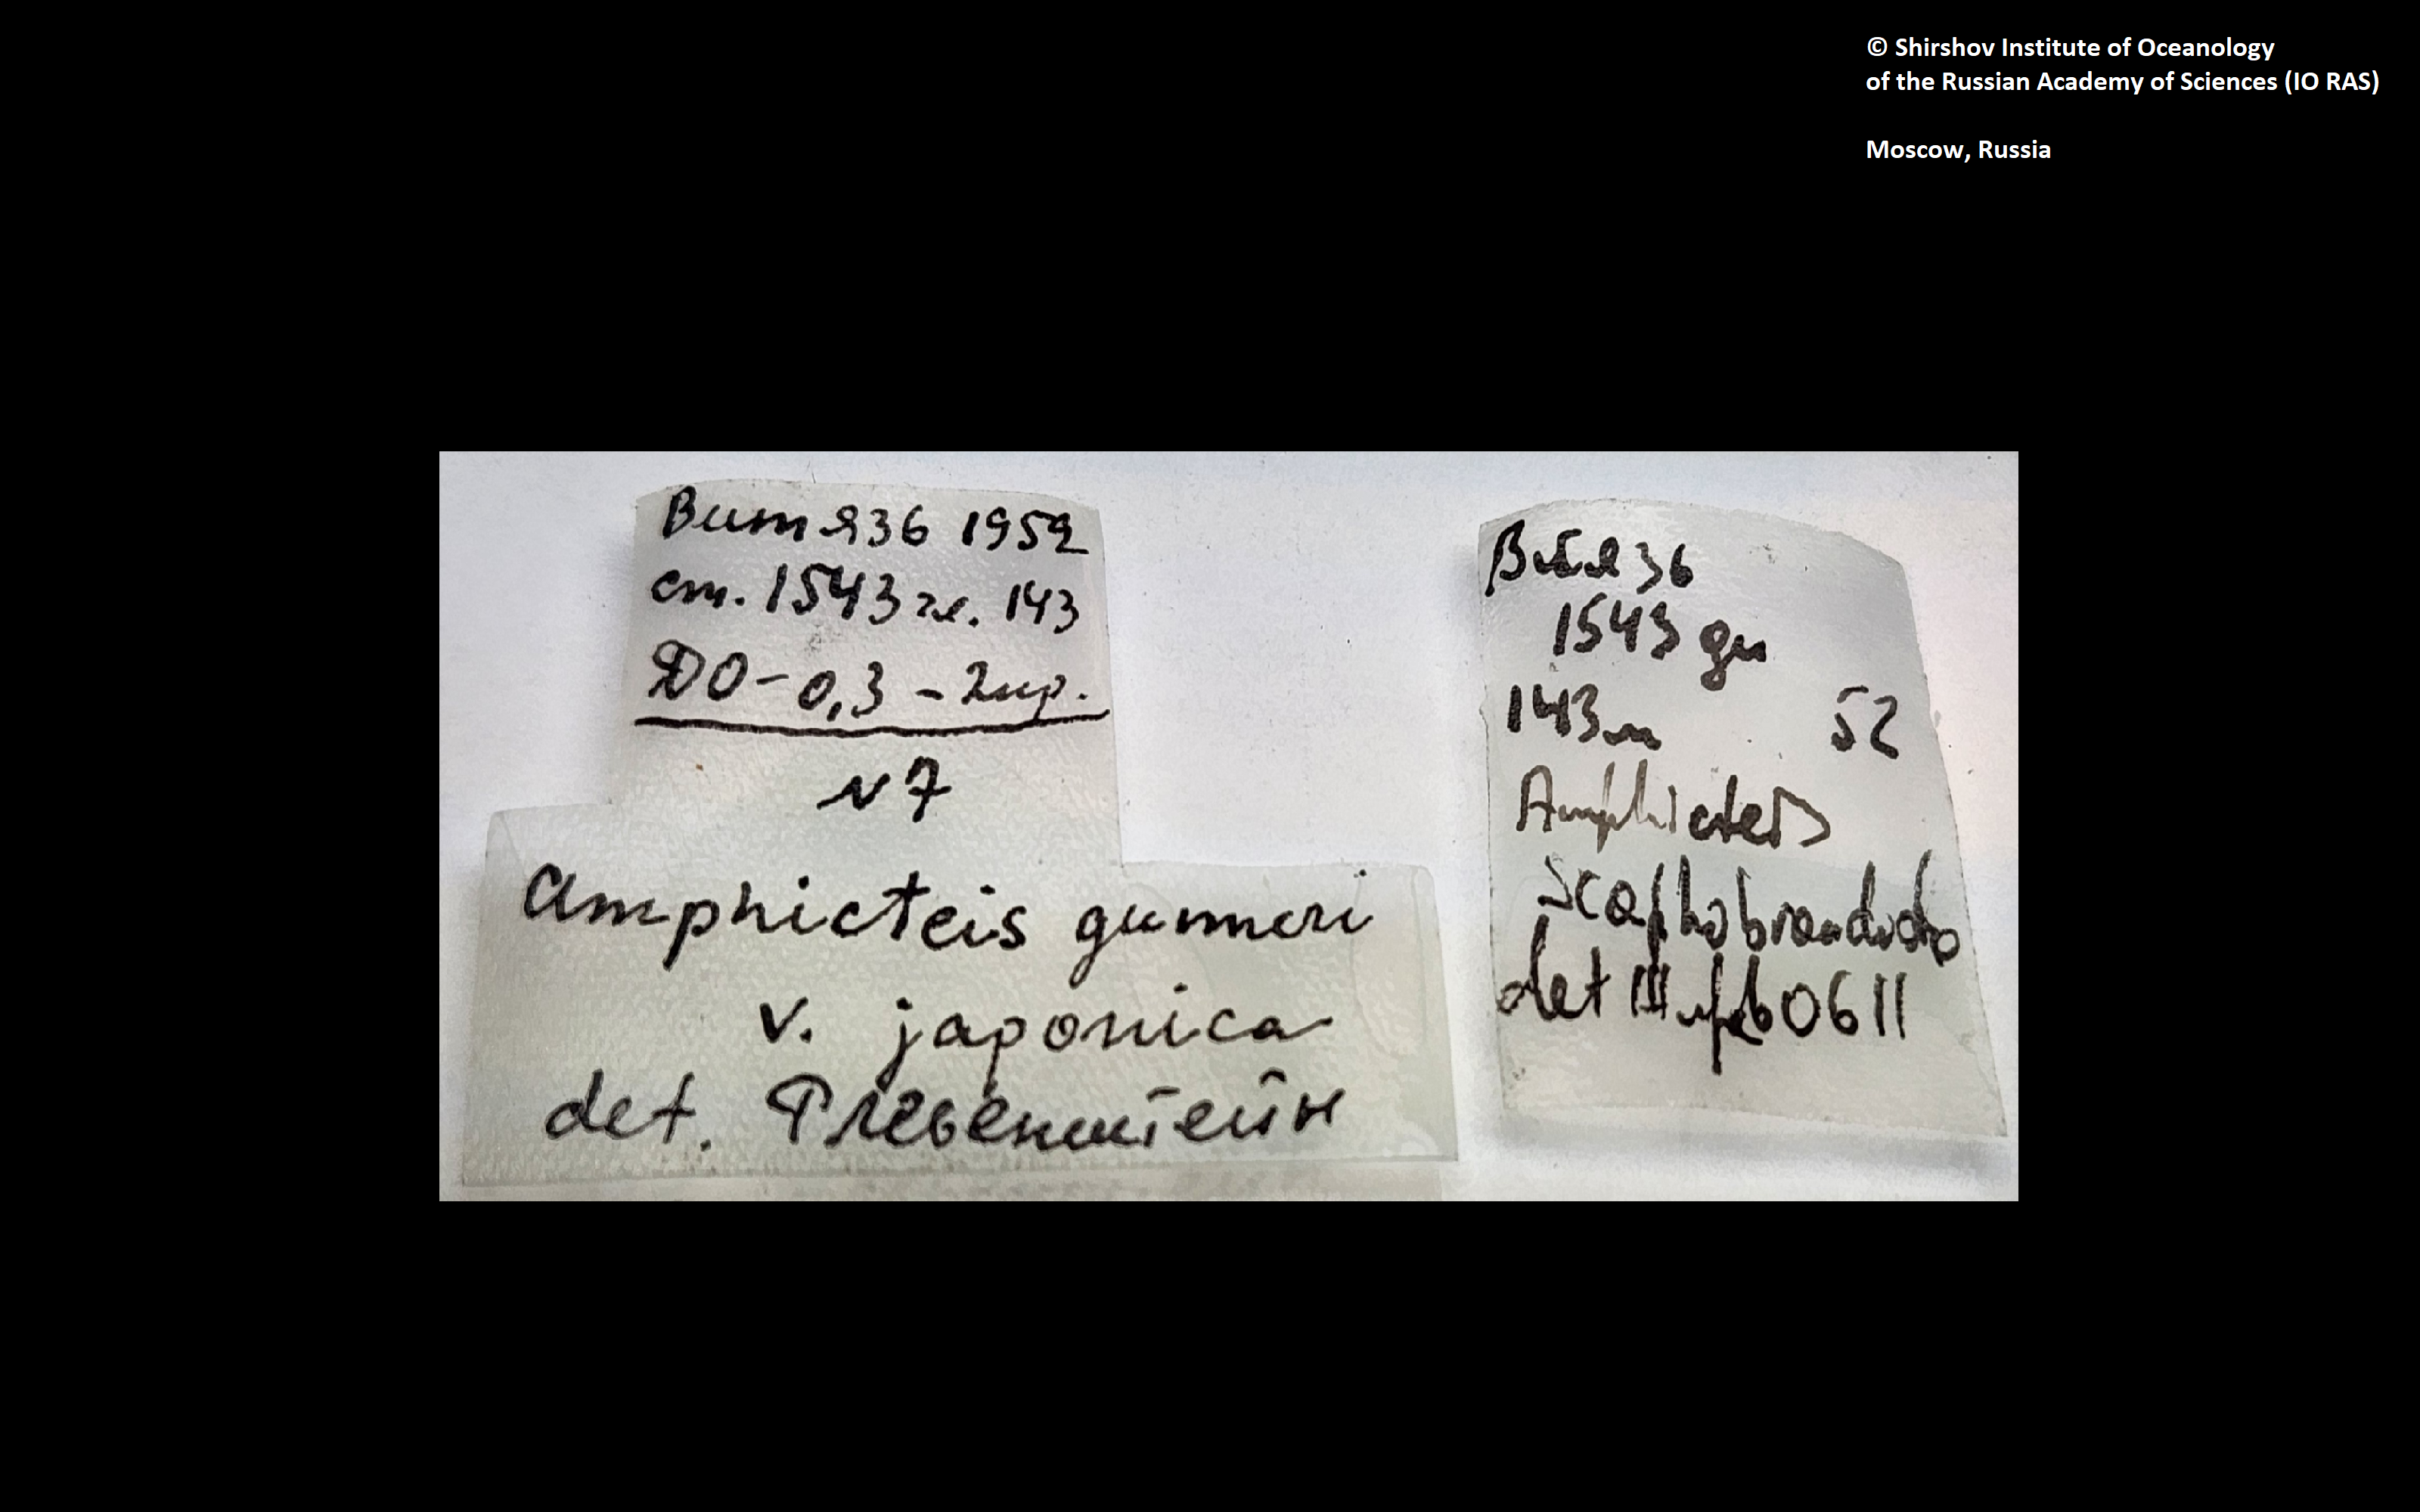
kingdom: Animalia
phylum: Annelida
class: Polychaeta
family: Ampharetidae
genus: Amphicteis
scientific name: Amphicteis nikiti
